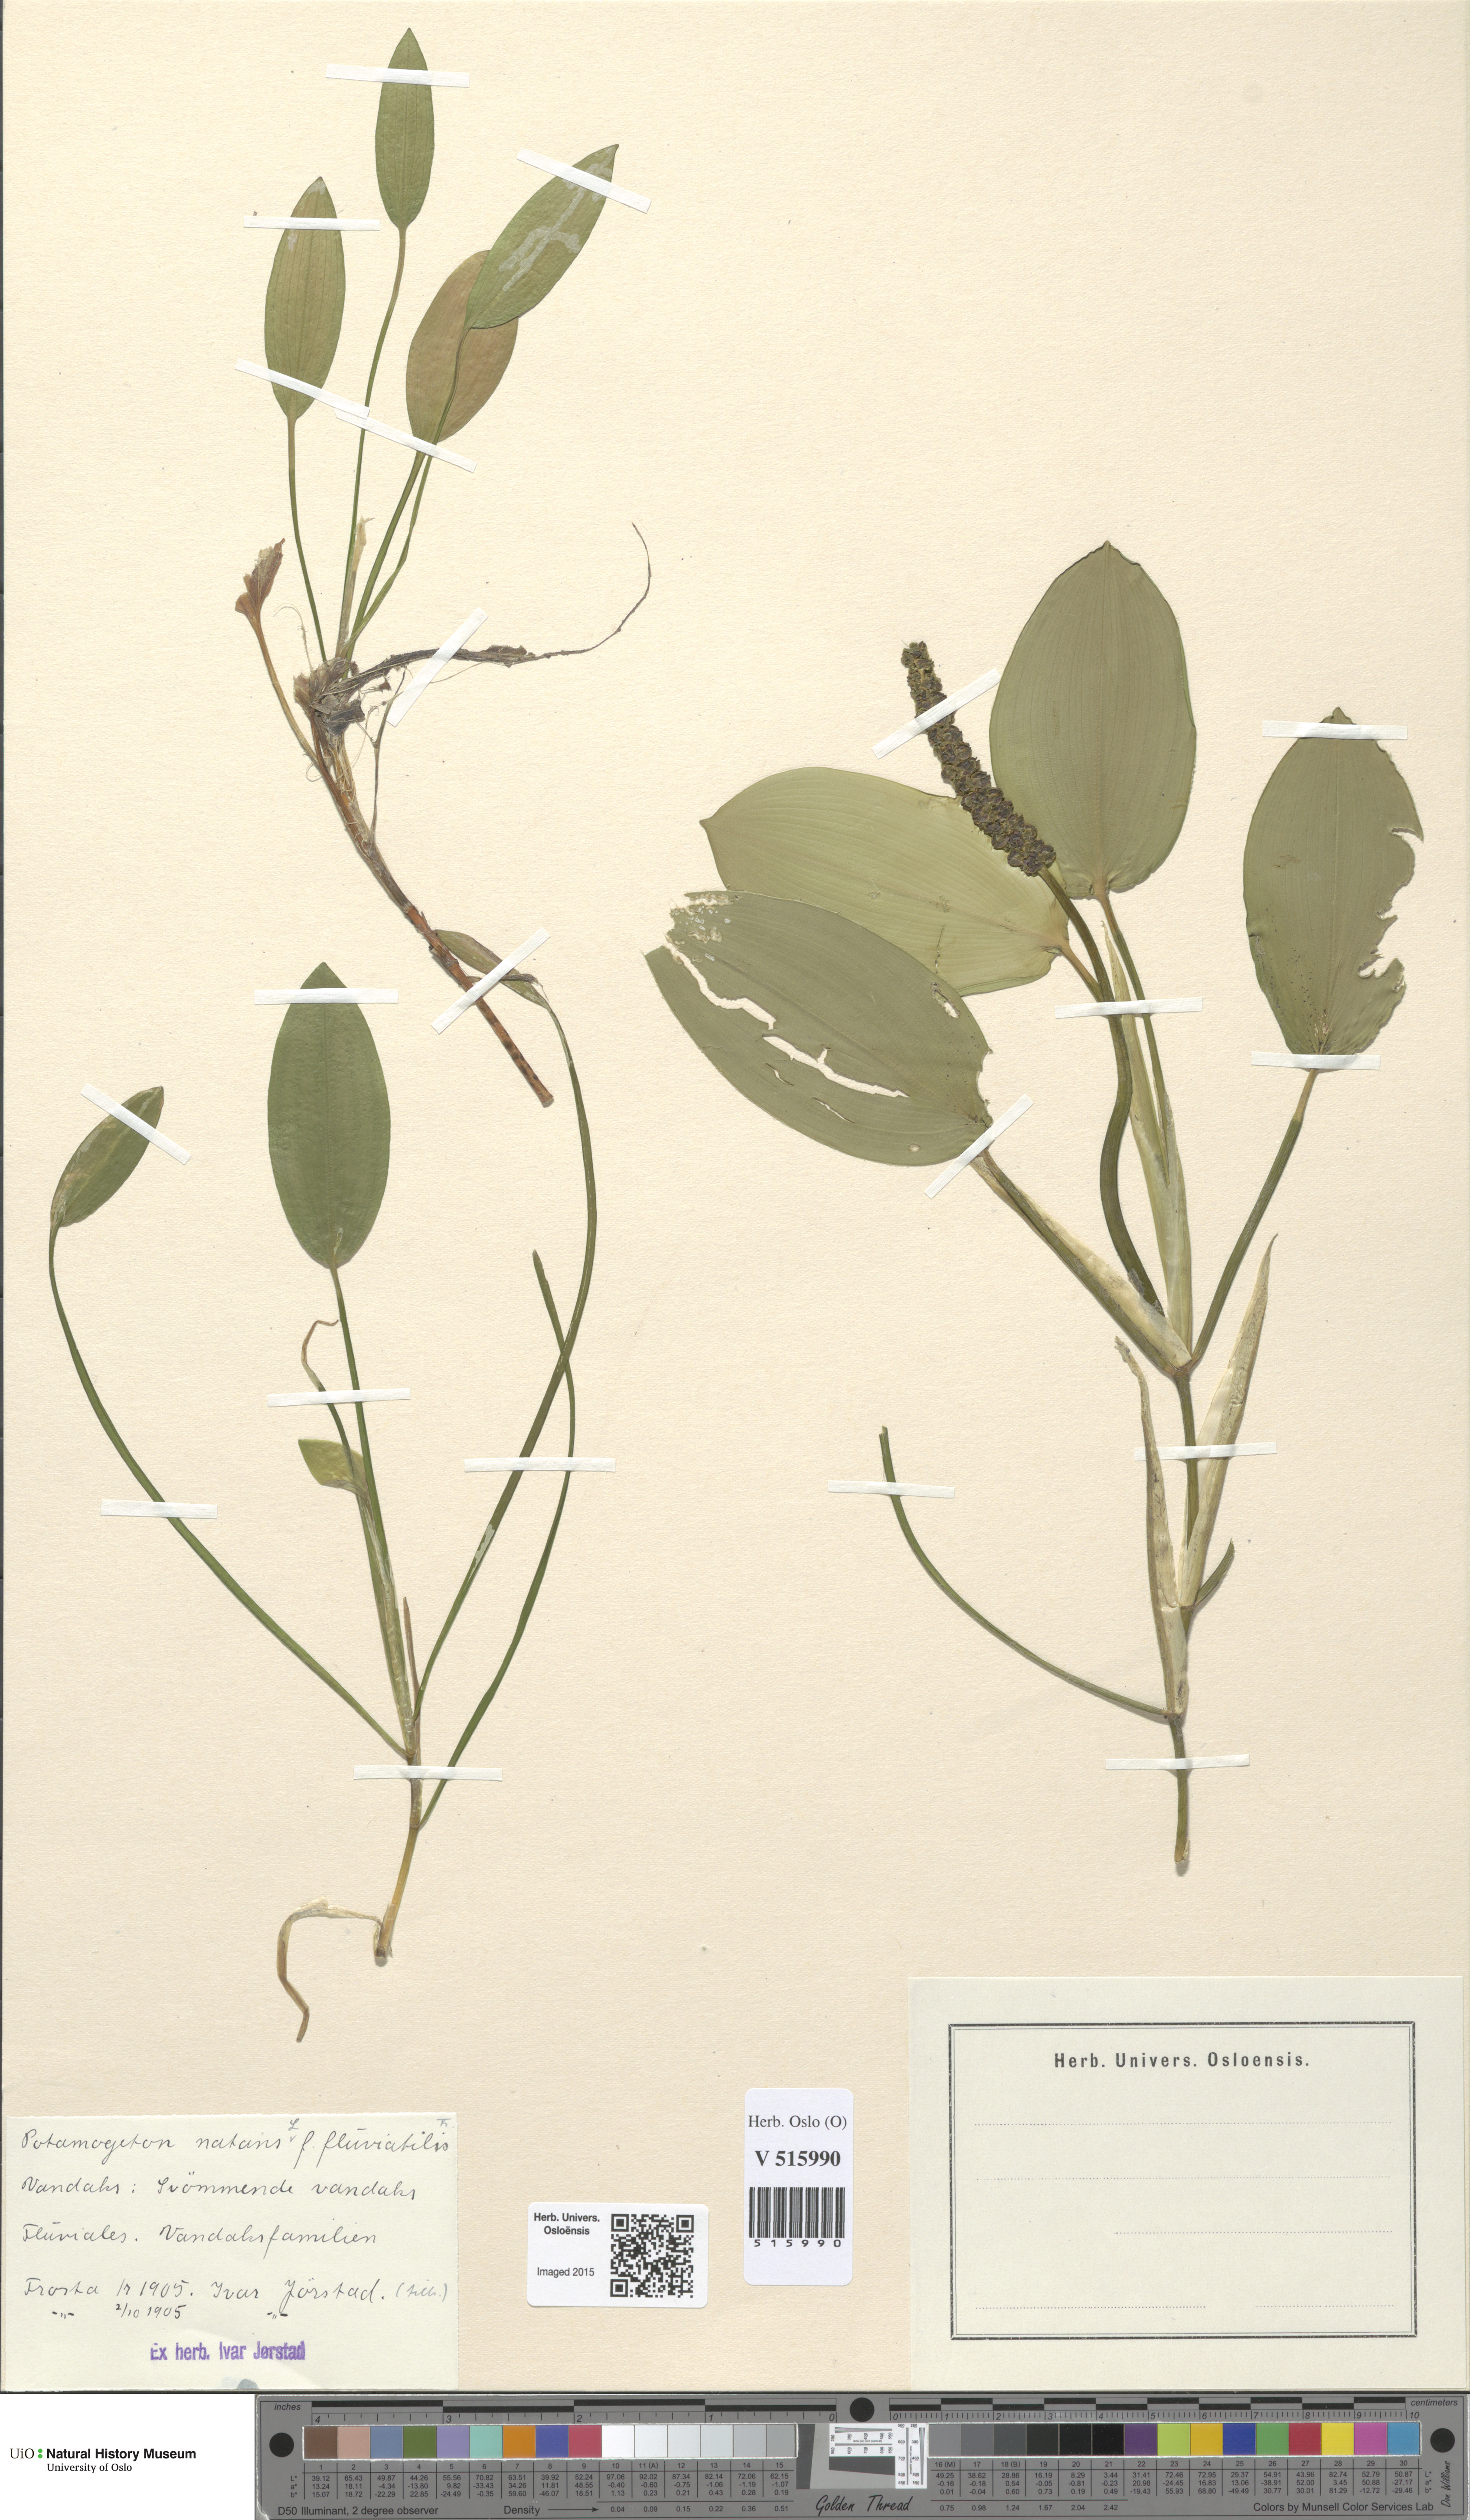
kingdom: Plantae
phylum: Tracheophyta
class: Liliopsida
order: Alismatales
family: Potamogetonaceae
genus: Potamogeton
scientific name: Potamogeton natans
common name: Broad-leaved pondweed
